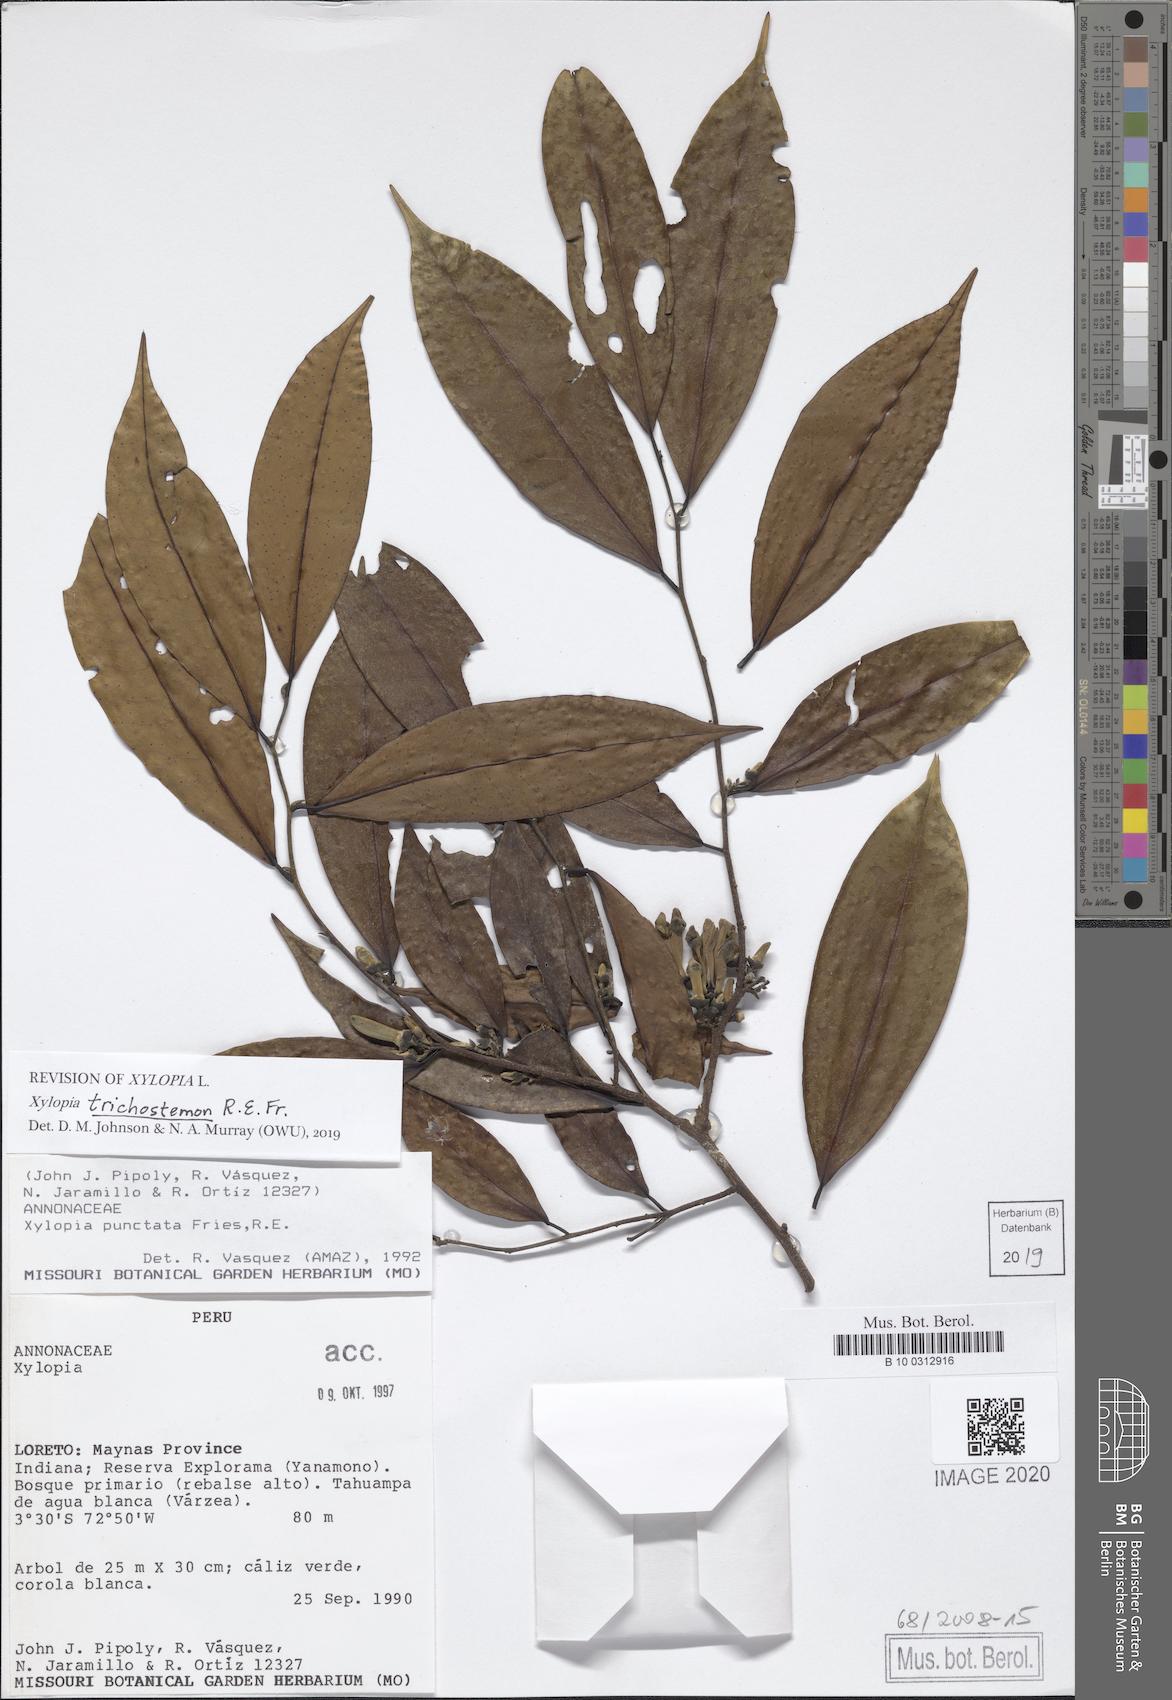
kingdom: Plantae
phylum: Tracheophyta
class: Magnoliopsida
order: Magnoliales
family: Annonaceae
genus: Xylopia
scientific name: Xylopia trichostemon
